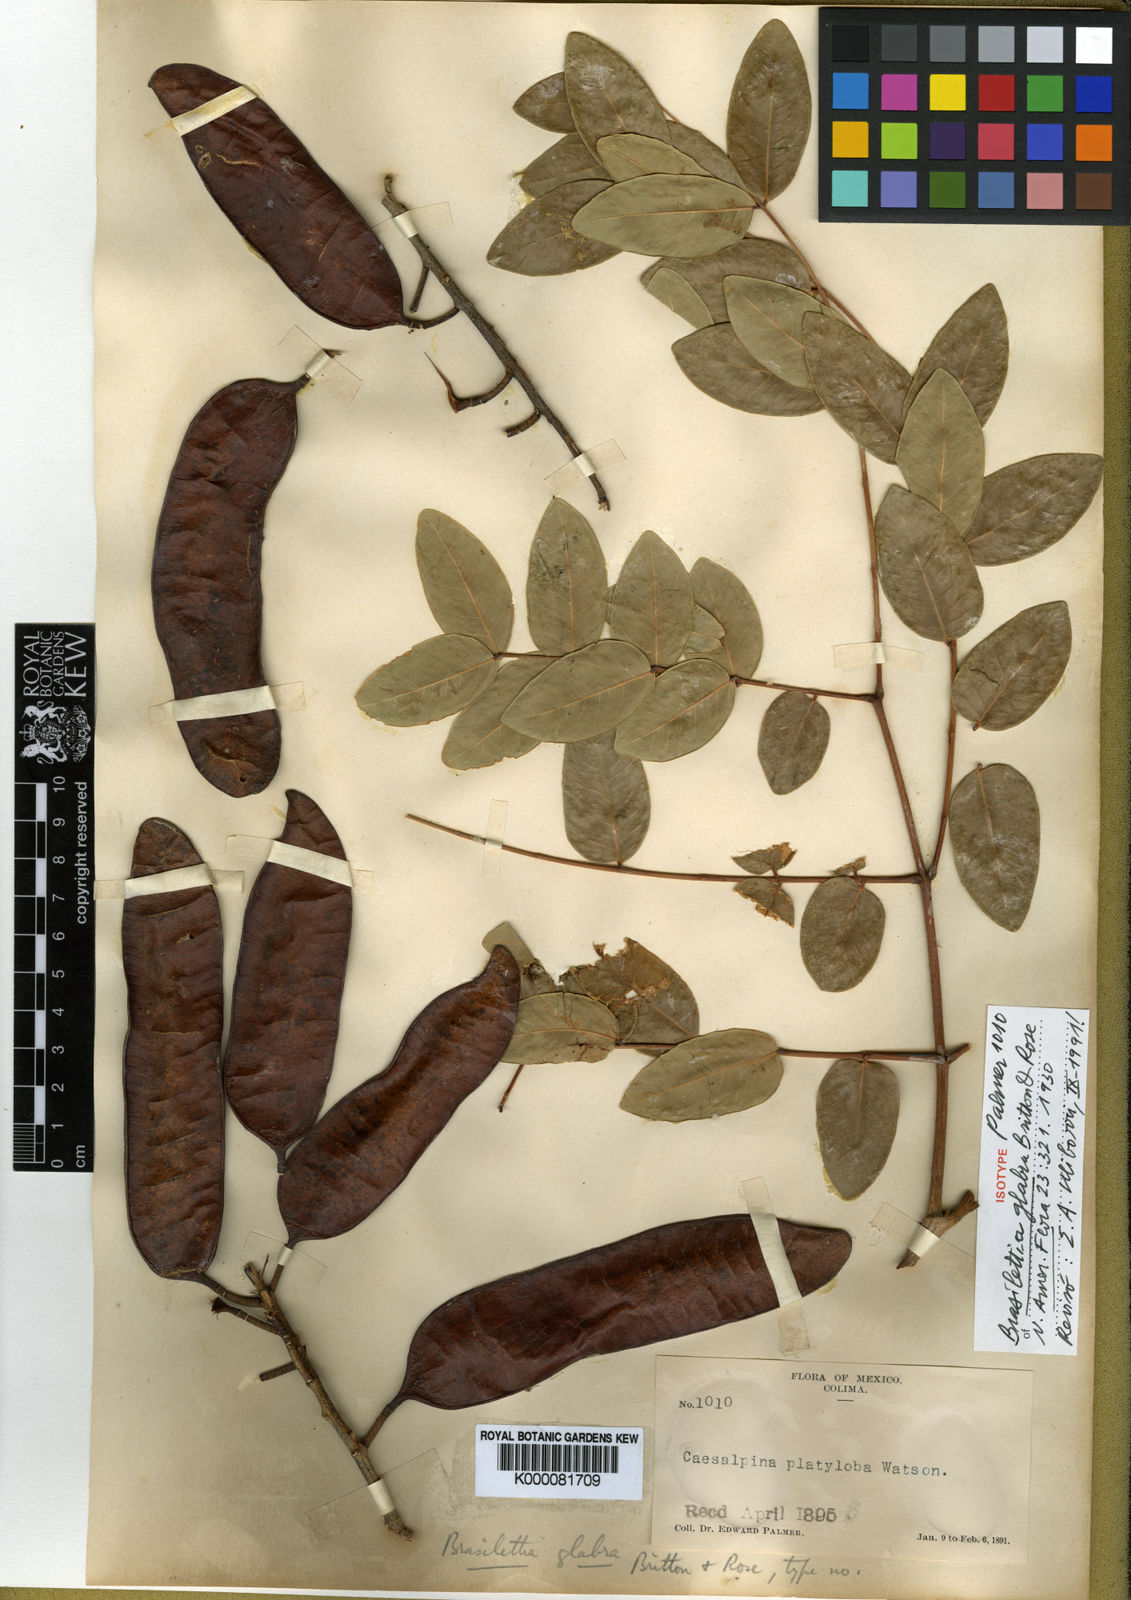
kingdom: Plantae
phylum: Tracheophyta
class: Magnoliopsida
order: Fabales
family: Fabaceae
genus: Coulteria
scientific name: Coulteria platyloba
